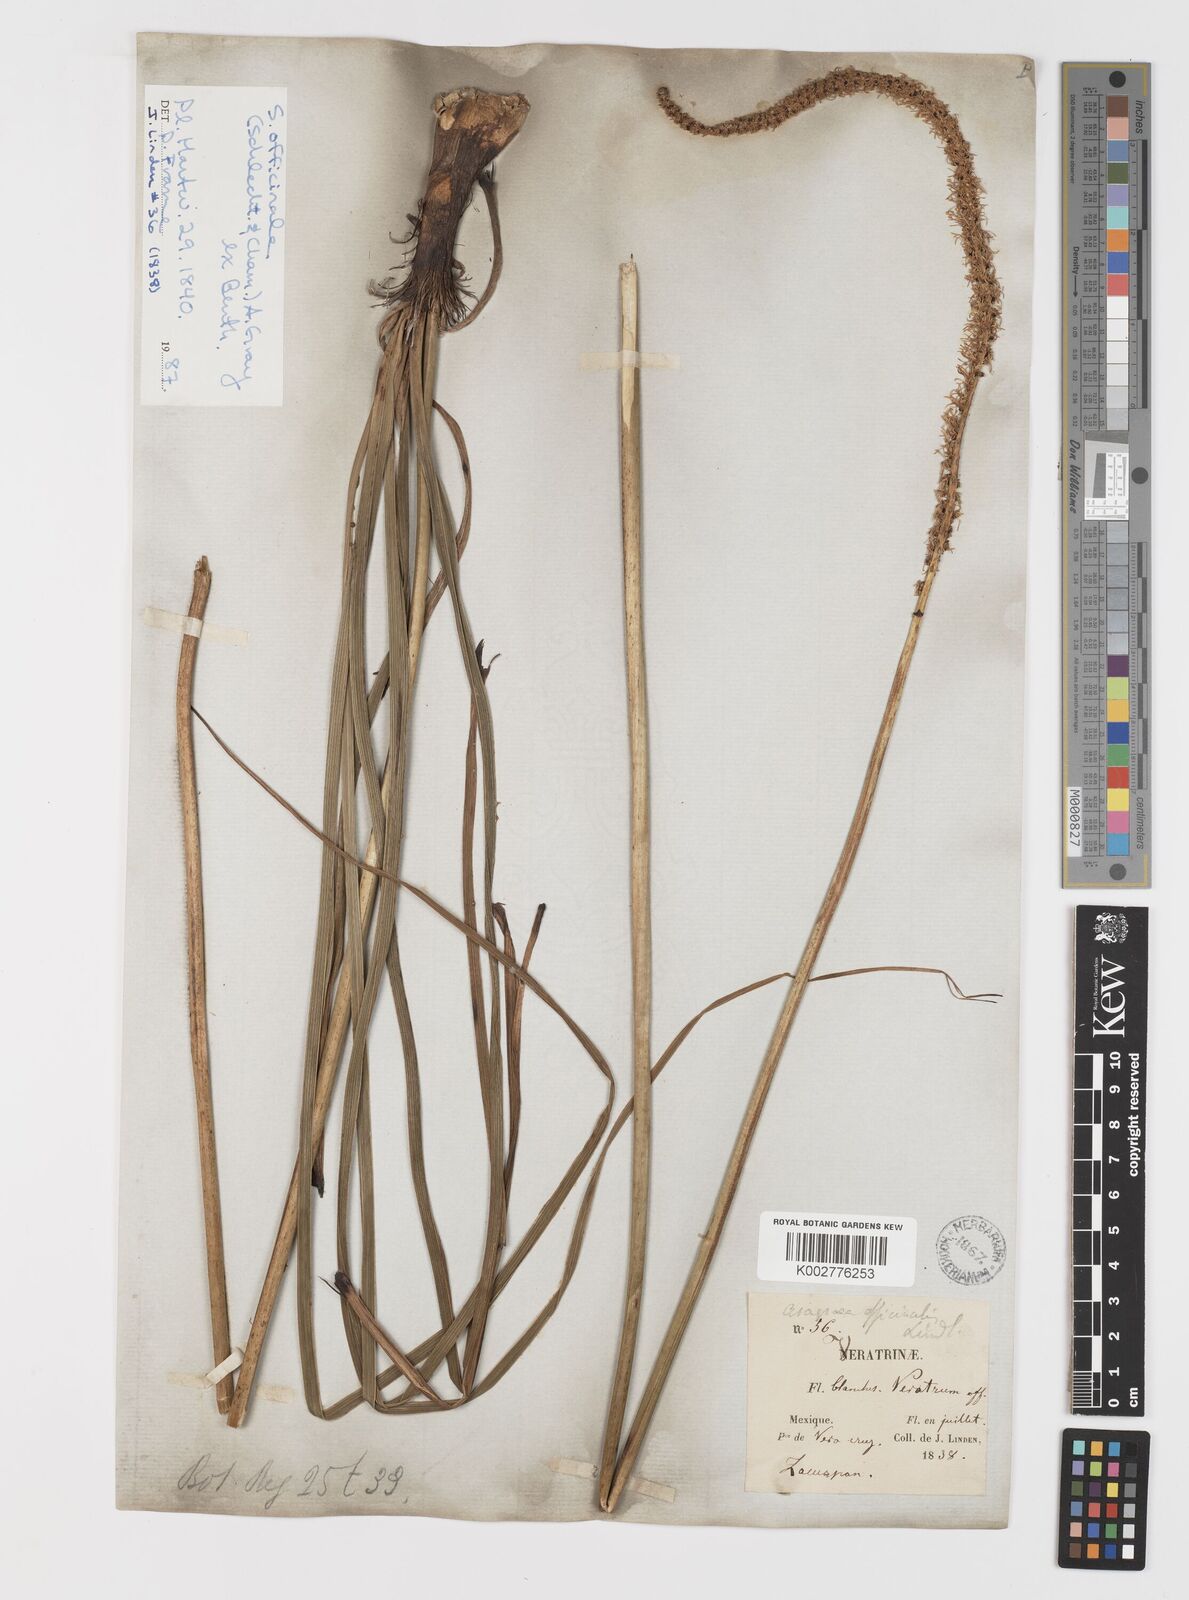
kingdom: Plantae
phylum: Tracheophyta
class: Liliopsida
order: Liliales
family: Melanthiaceae
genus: Schoenocaulon
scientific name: Schoenocaulon officinale
